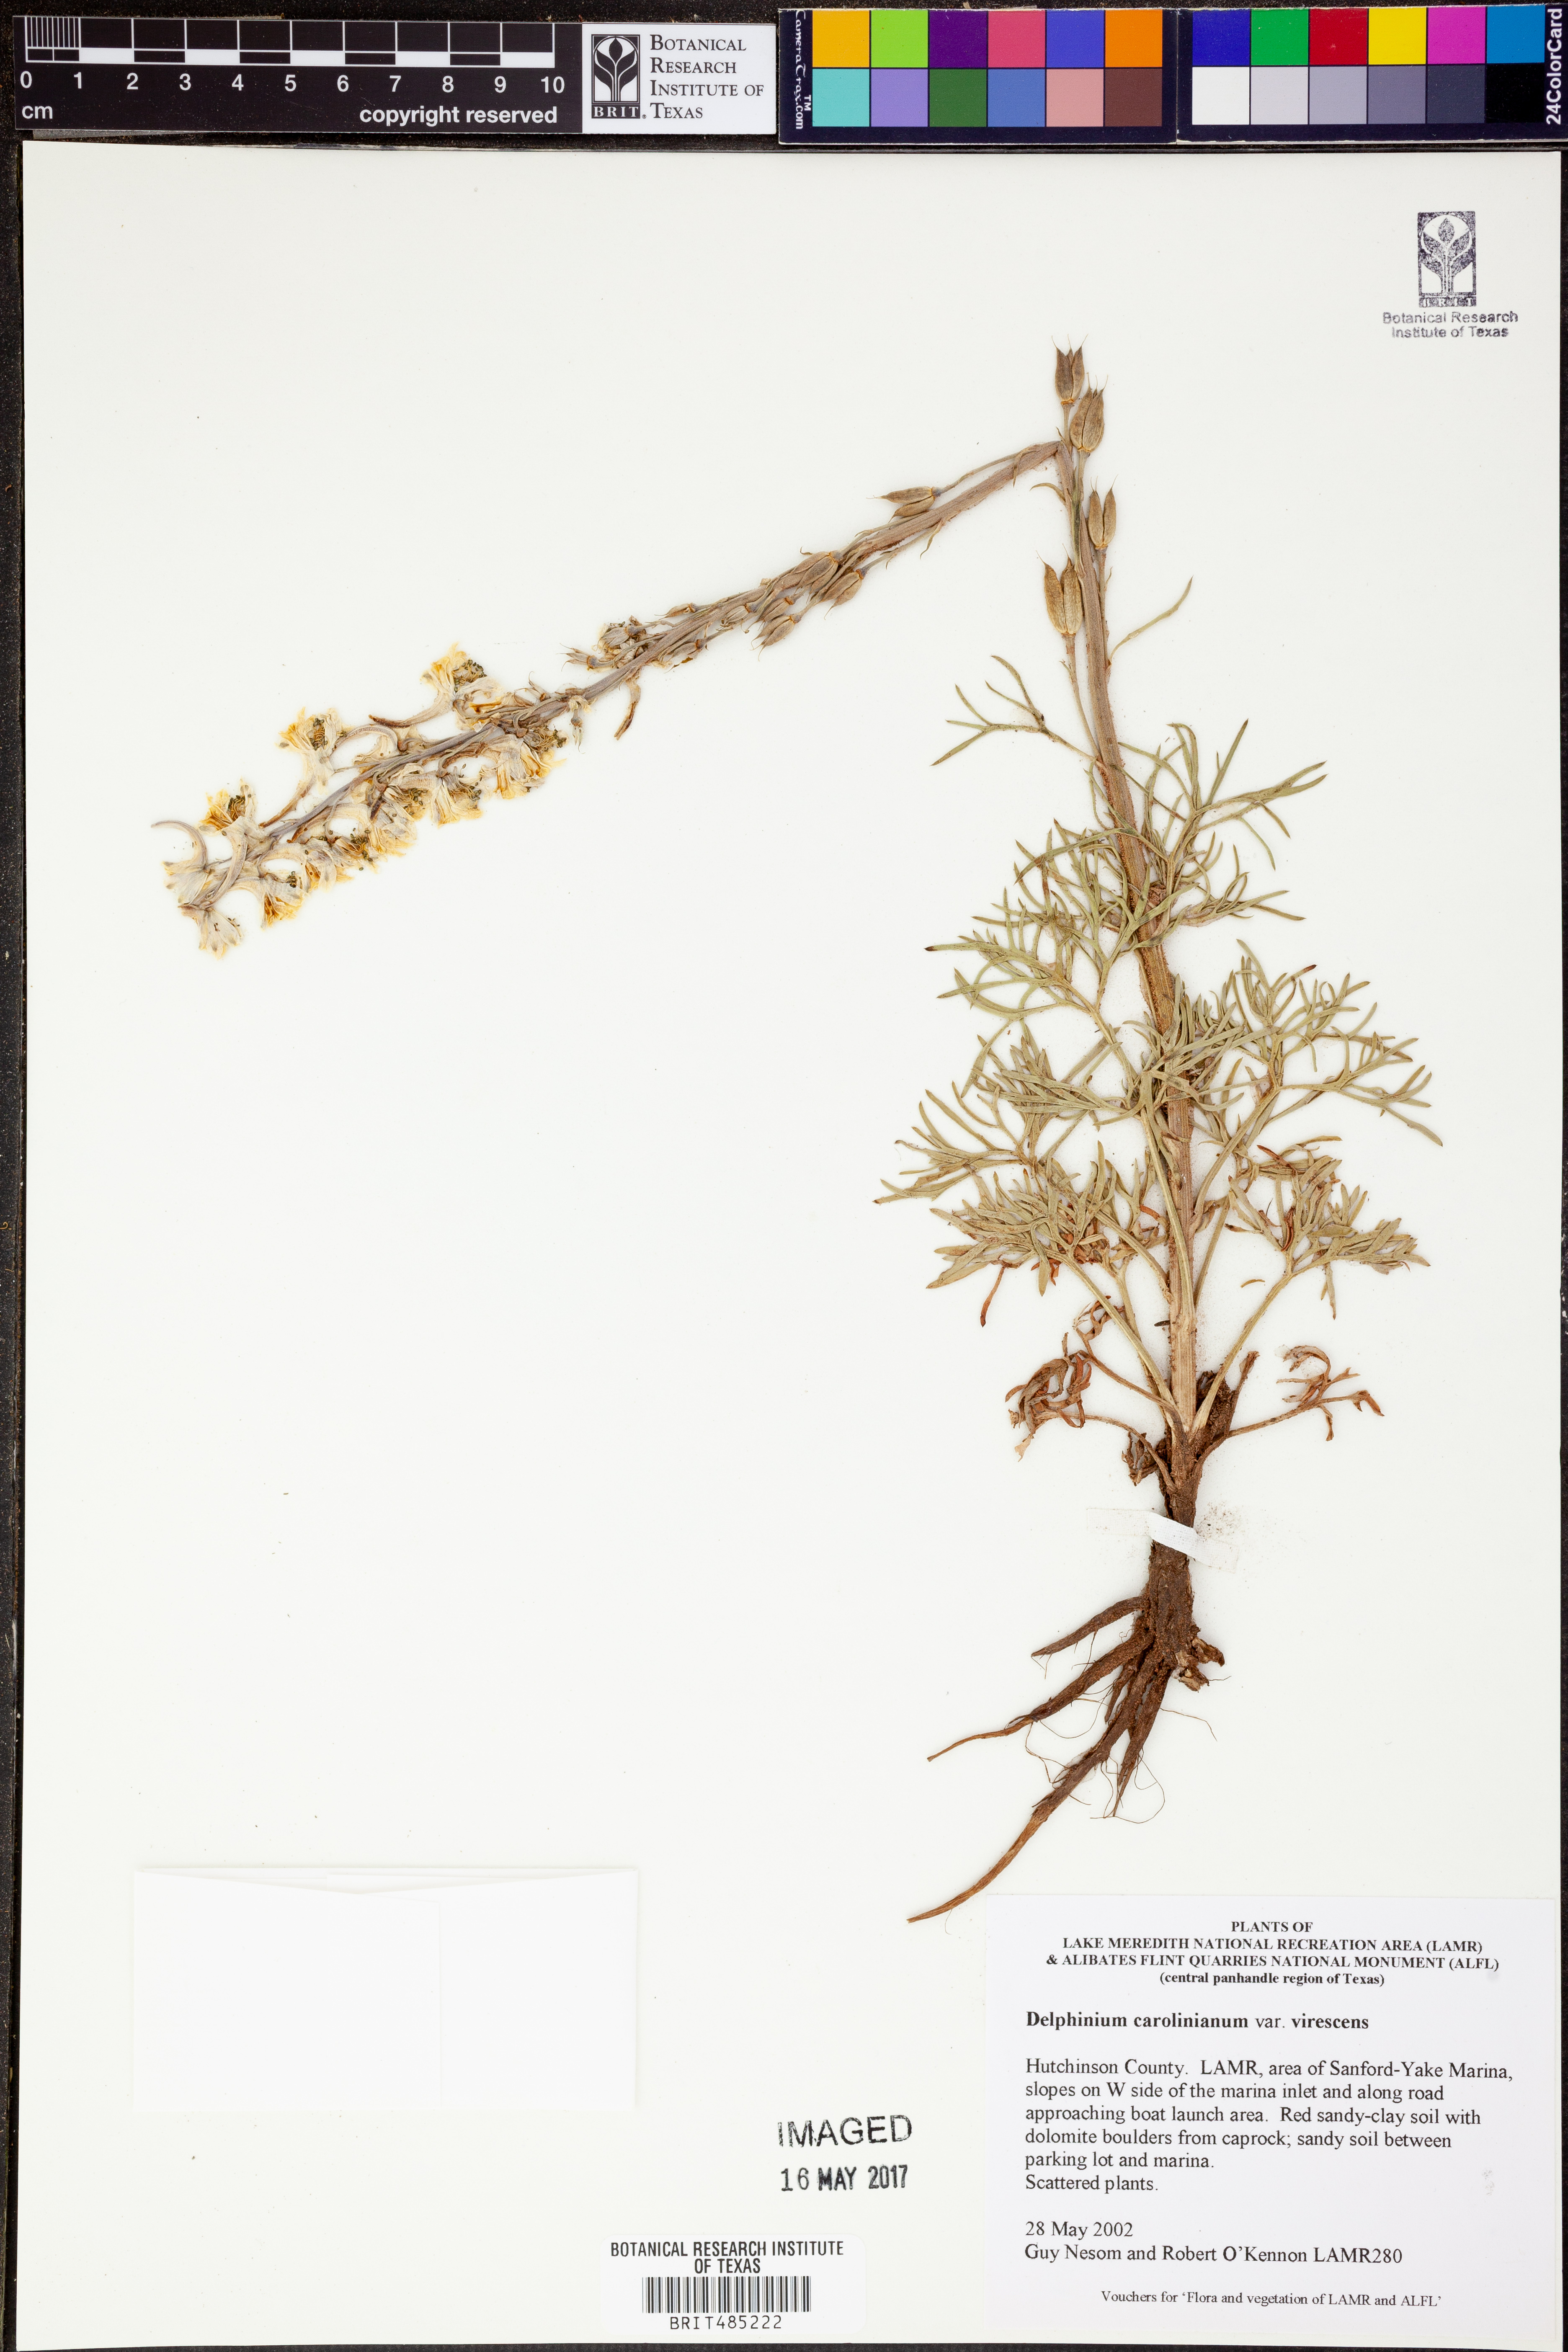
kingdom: Plantae
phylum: Tracheophyta
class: Magnoliopsida
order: Ranunculales
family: Ranunculaceae
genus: Delphinium
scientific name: Delphinium carolinianum
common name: Carolina larkspur
